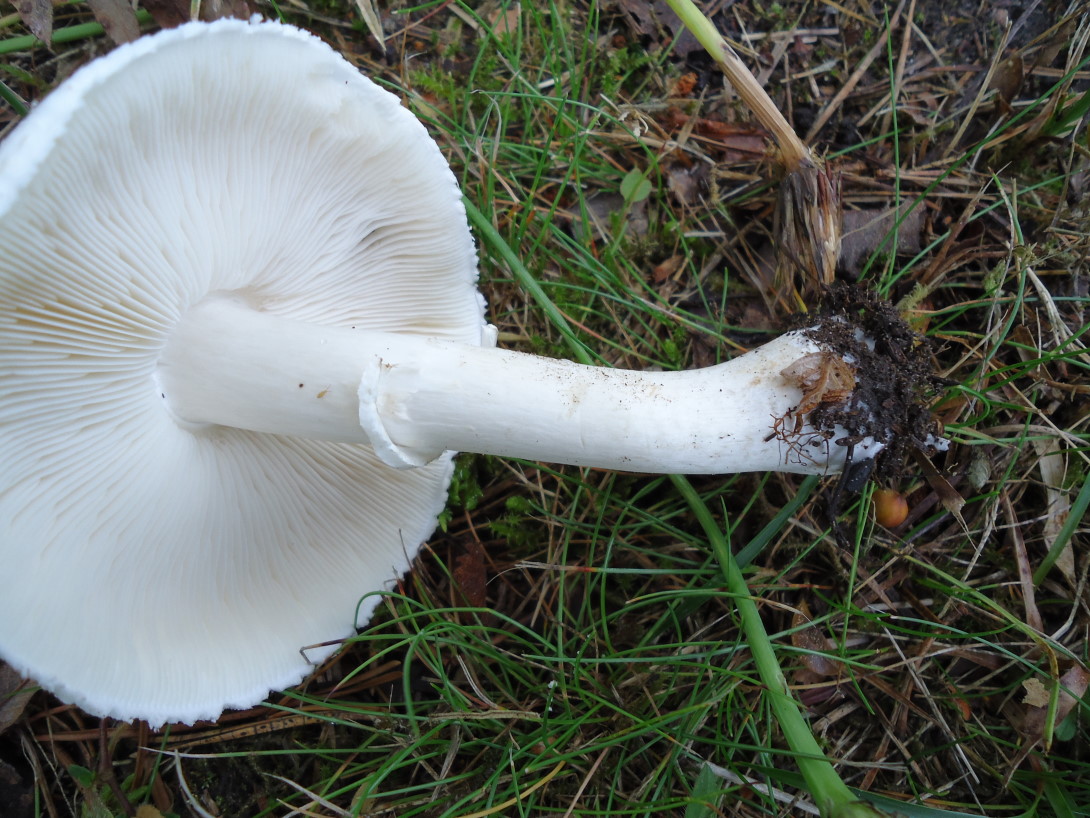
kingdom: Fungi
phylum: Basidiomycota
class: Agaricomycetes
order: Agaricales
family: Agaricaceae
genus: Leucoagaricus
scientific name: Leucoagaricus leucothites
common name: rosabladet silkehat
